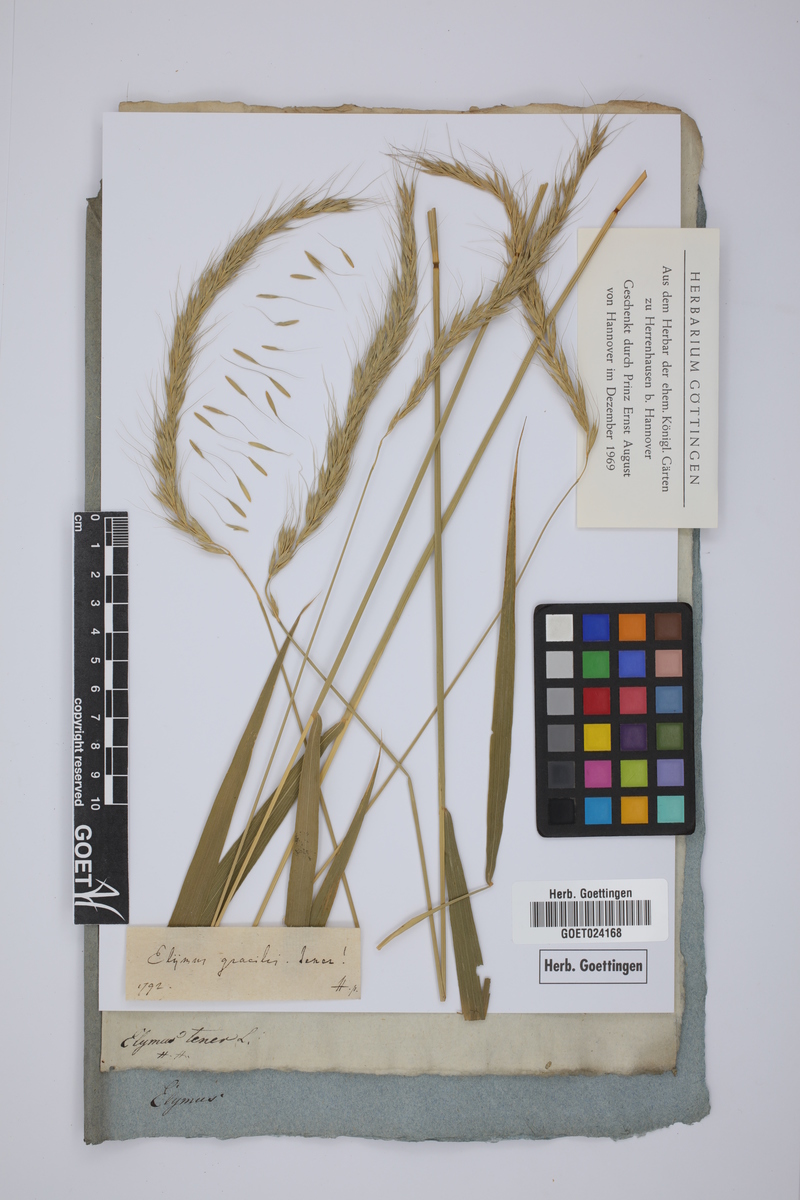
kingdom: Plantae
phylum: Tracheophyta
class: Liliopsida
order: Poales
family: Poaceae
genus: Elymus
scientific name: Elymus sibiricus
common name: Siberian wildrye
